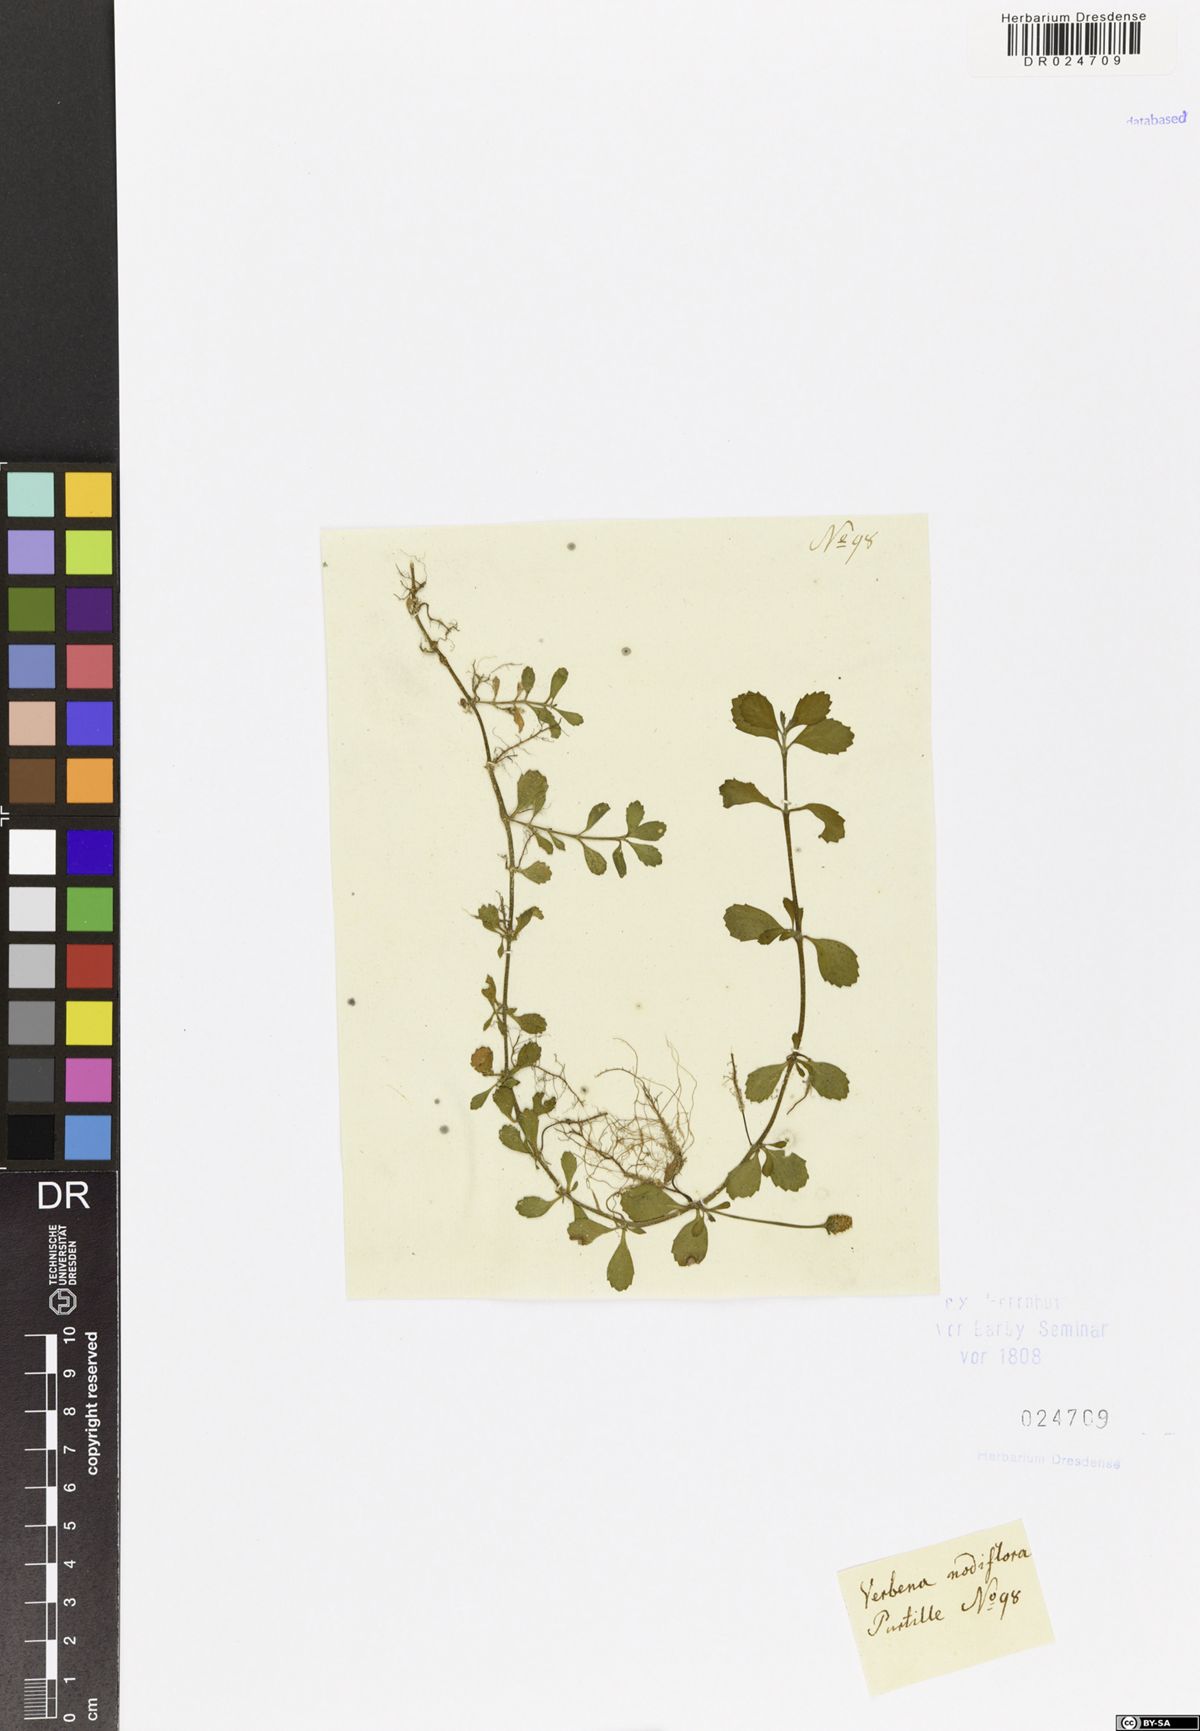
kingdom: Plantae
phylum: Tracheophyta
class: Magnoliopsida
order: Lamiales
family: Verbenaceae
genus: Phyla
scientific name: Phyla nodiflora
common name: Frogfruit
